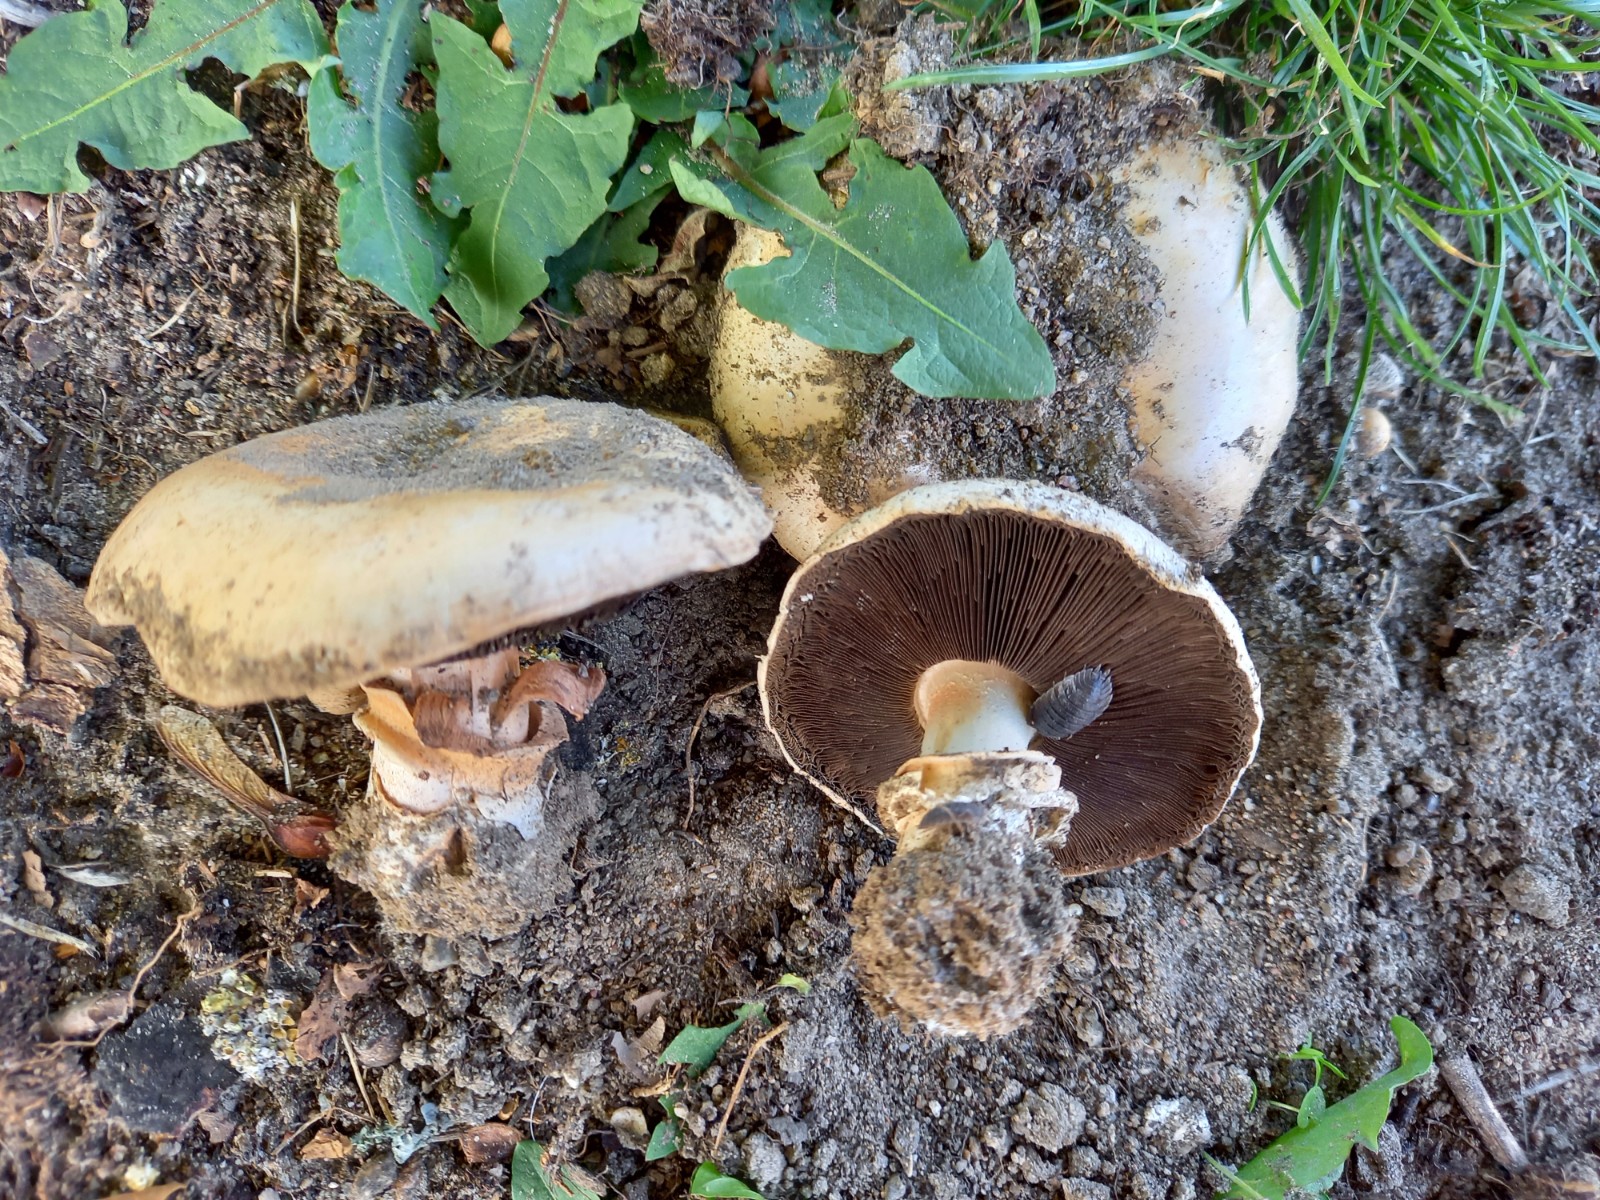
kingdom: Fungi
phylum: Basidiomycota
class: Agaricomycetes
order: Agaricales
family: Agaricaceae
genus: Agaricus
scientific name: Agaricus bitorquis
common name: vej-champignon
